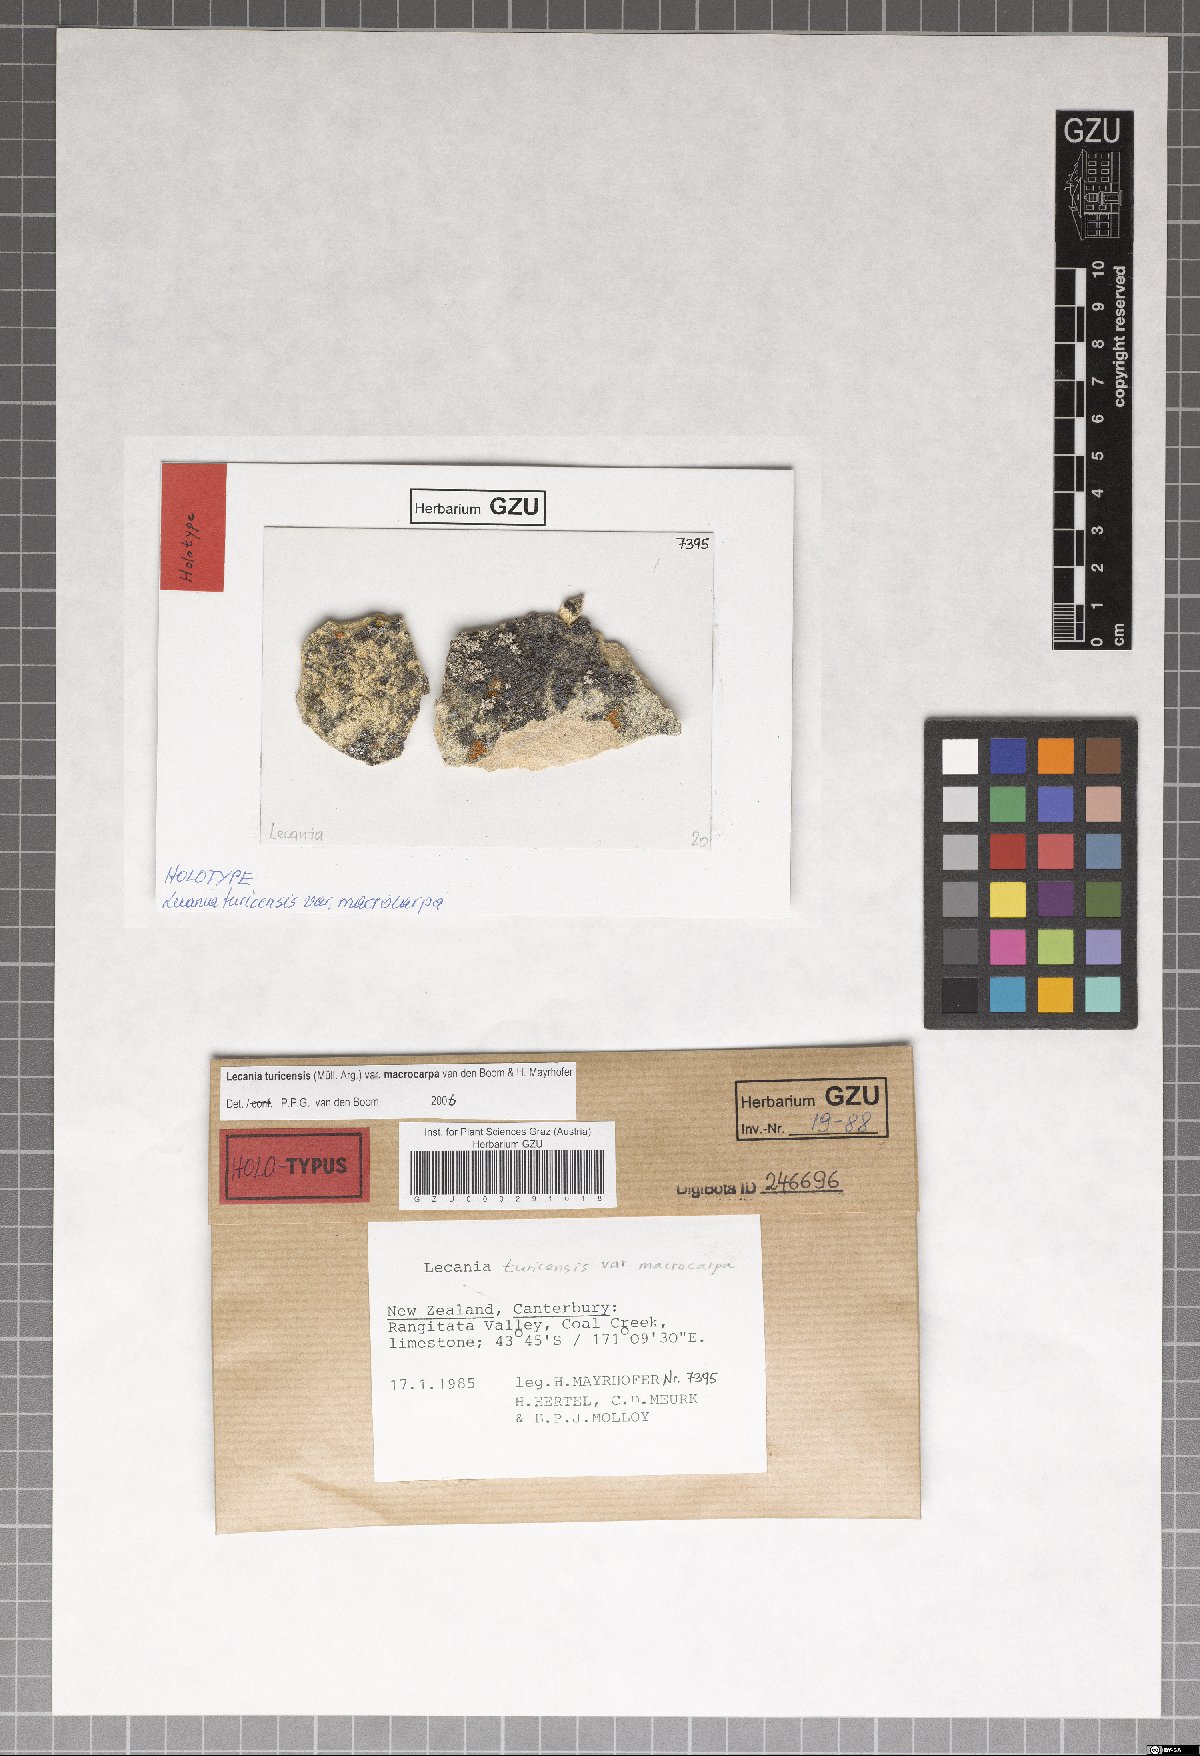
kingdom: Fungi
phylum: Ascomycota
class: Lecanoromycetes
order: Lecanorales
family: Ramalinaceae
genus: Lecania
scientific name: Lecania turicensis
